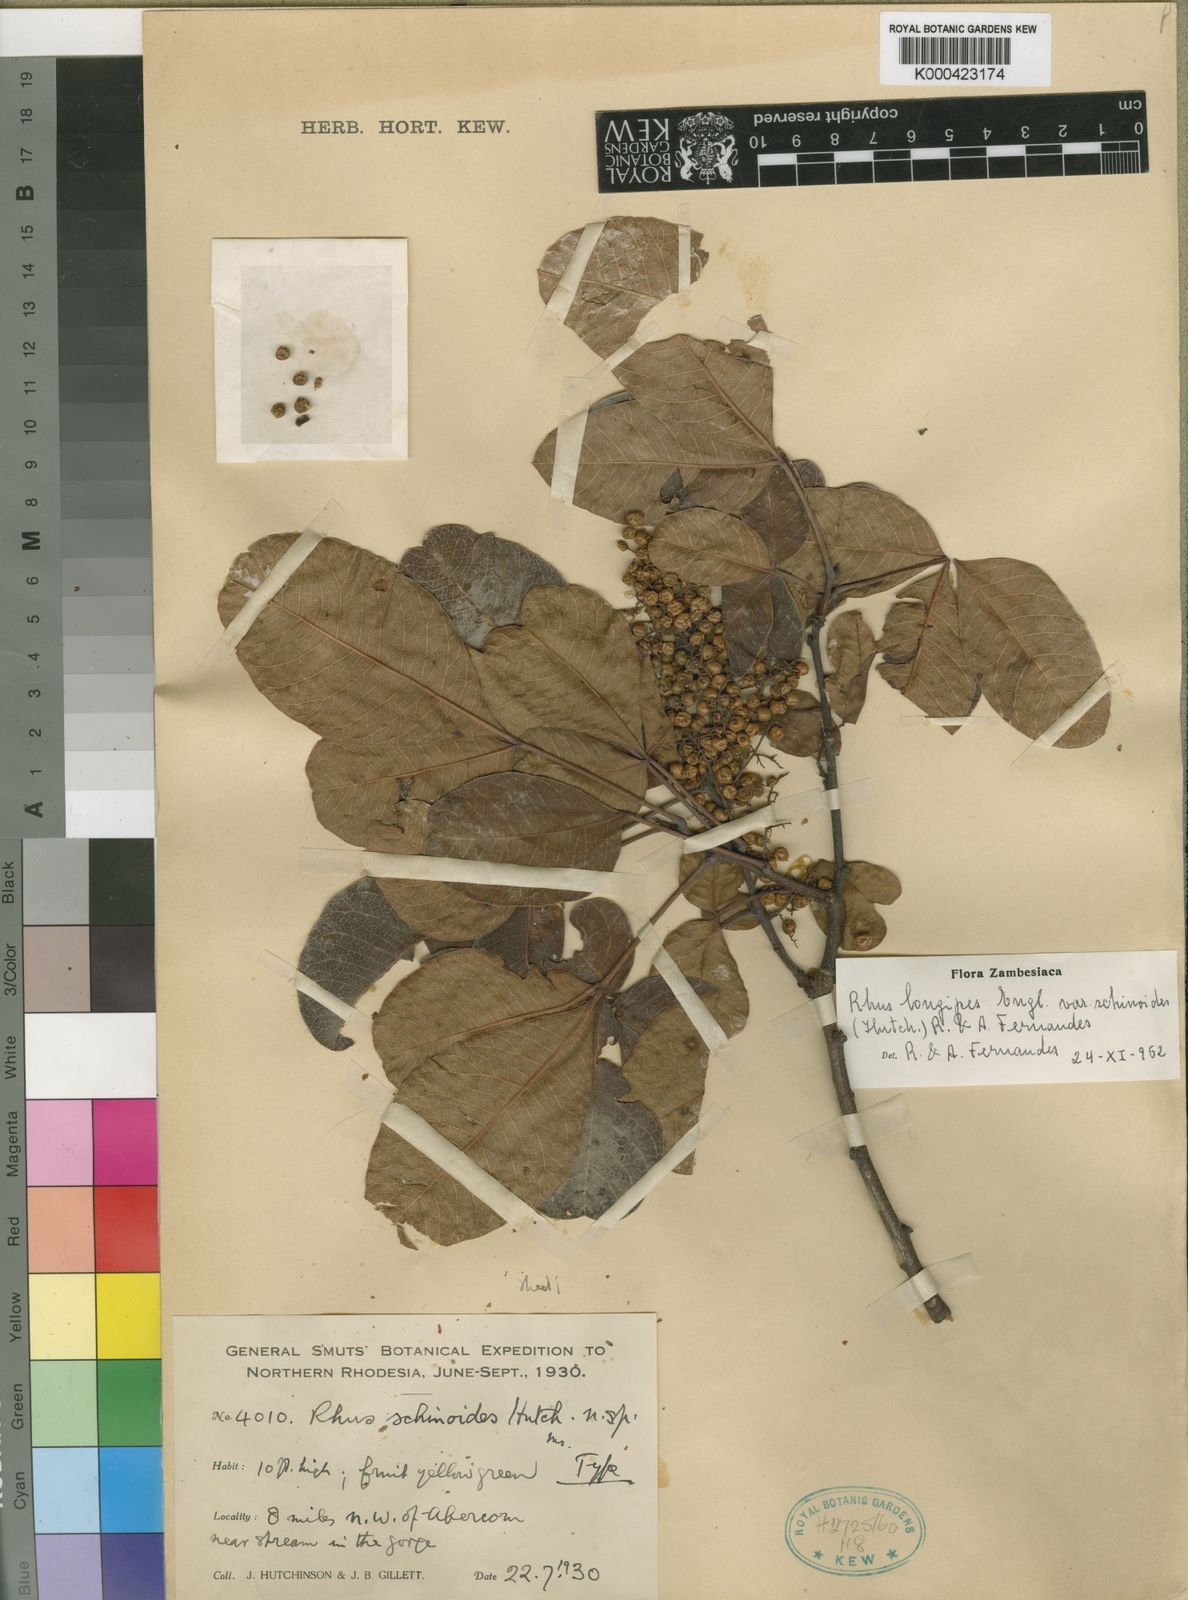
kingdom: Plantae
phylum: Tracheophyta
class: Magnoliopsida
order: Sapindales
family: Anacardiaceae
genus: Searsia
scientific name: Searsia longipes
